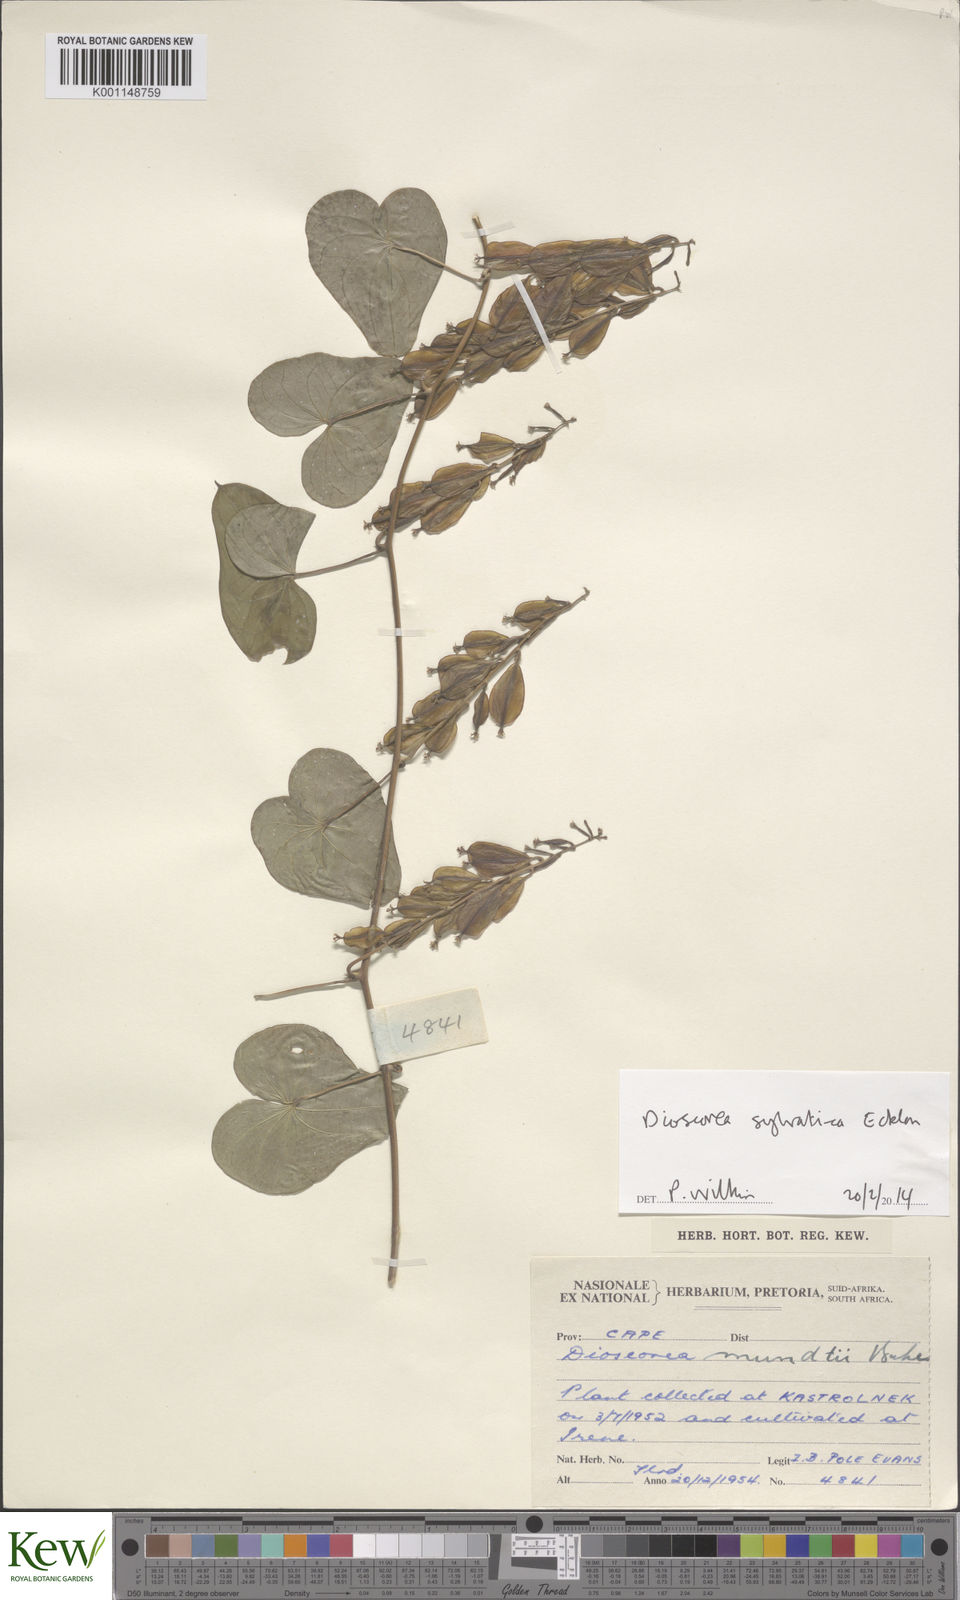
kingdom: Plantae
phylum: Tracheophyta
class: Liliopsida
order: Dioscoreales
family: Dioscoreaceae
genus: Dioscorea
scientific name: Dioscorea sylvatica
